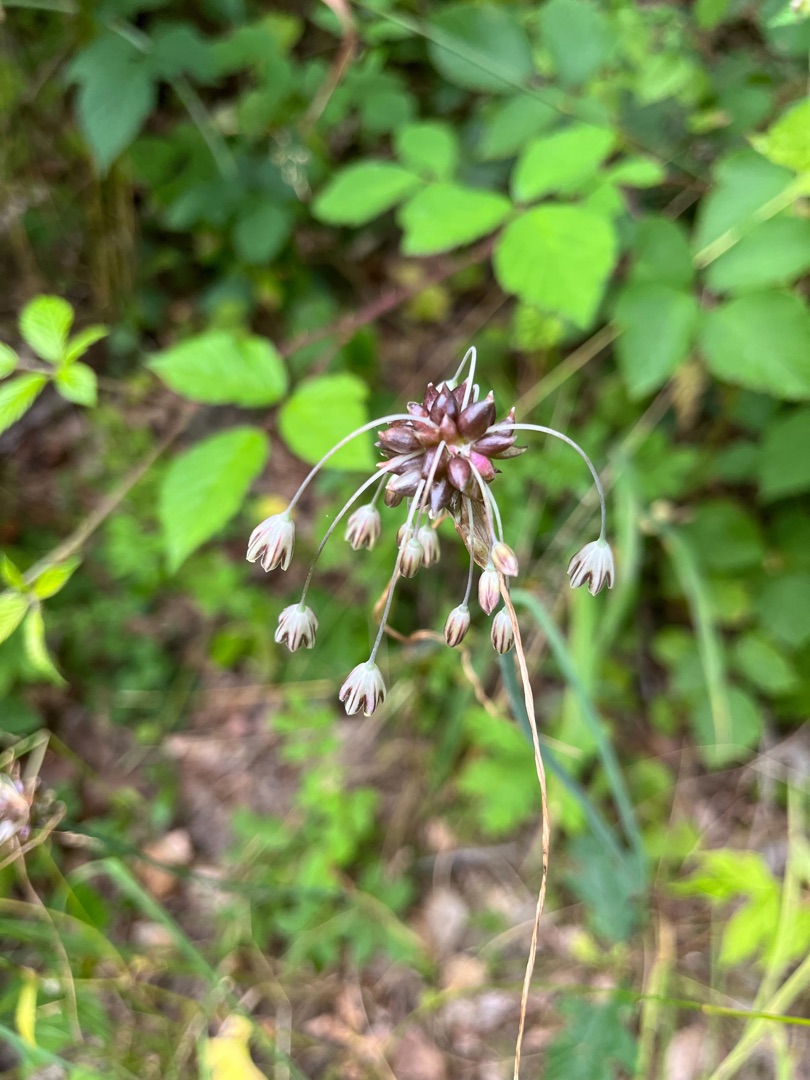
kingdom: Plantae
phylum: Tracheophyta
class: Liliopsida
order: Asparagales
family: Amaryllidaceae
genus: Allium
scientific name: Allium oleraceum
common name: Vild løg
